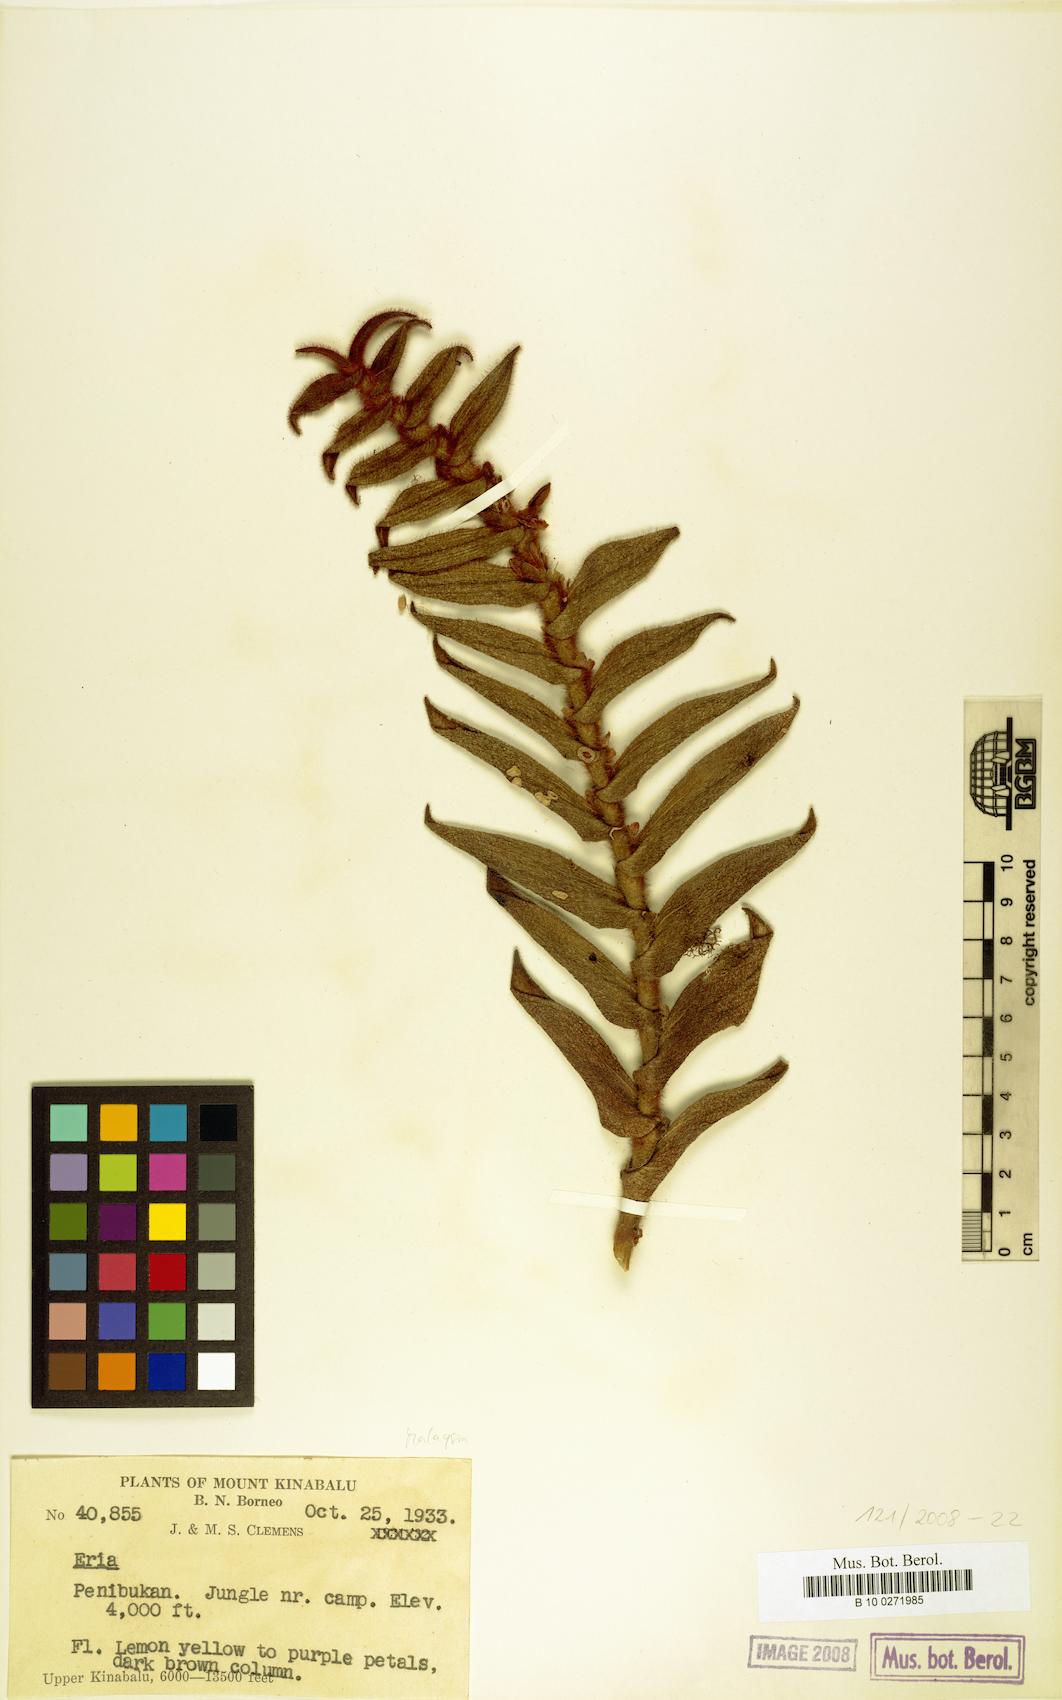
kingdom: Plantae
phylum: Tracheophyta
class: Liliopsida
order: Asparagales
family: Orchidaceae
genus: Eria
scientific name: Eria
